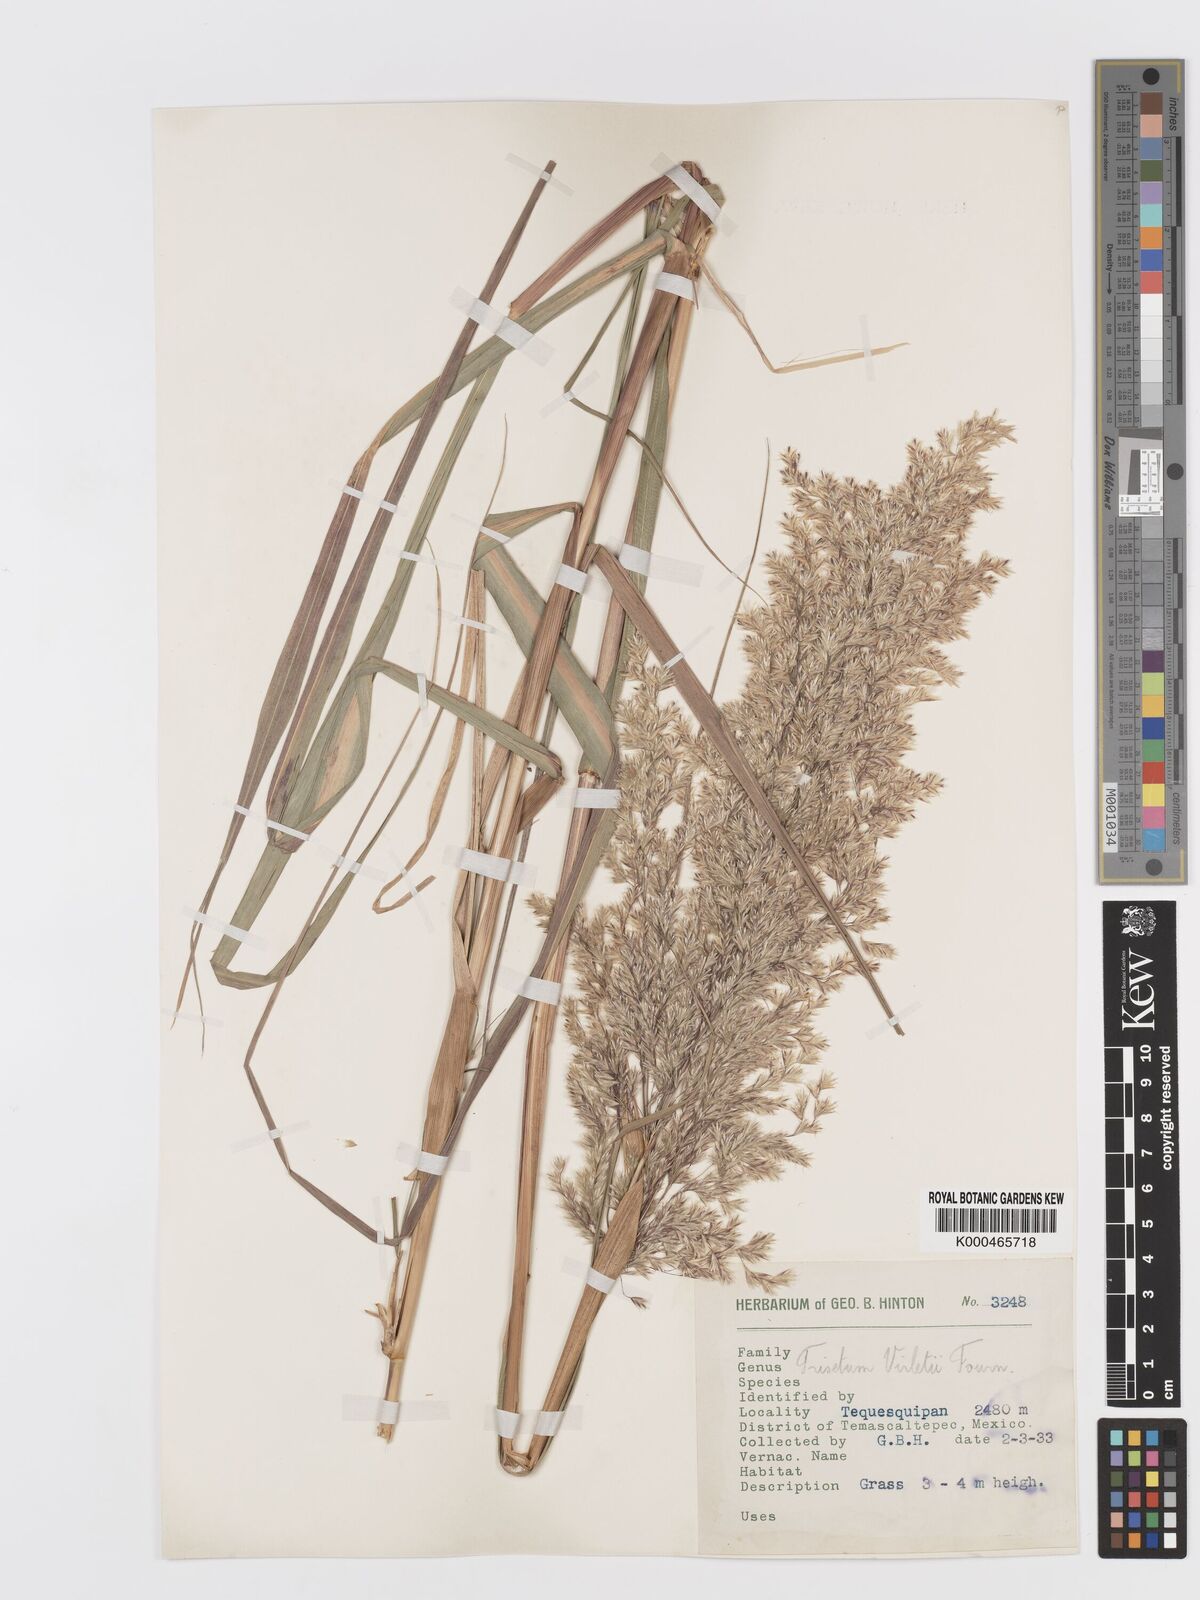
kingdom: Plantae
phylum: Tracheophyta
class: Liliopsida
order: Poales
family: Poaceae
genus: Peyritschia
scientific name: Peyritschia virletii
